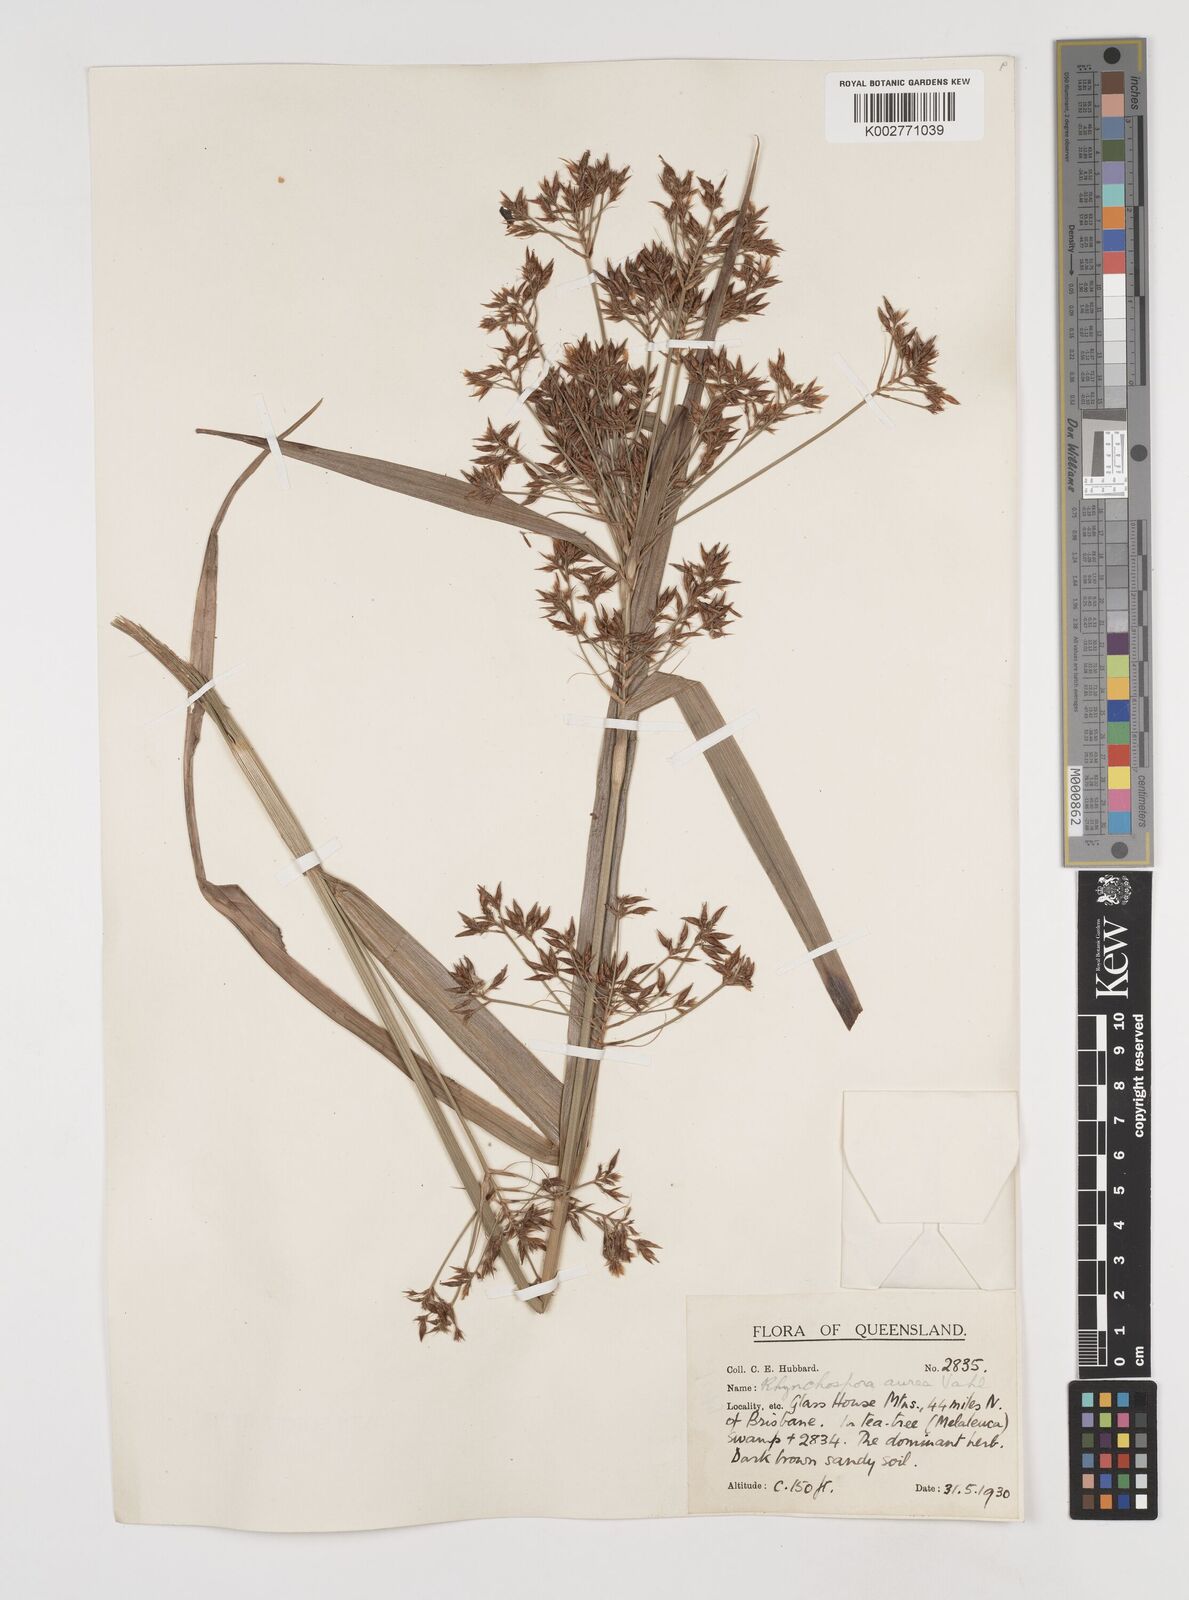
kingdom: Plantae
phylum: Tracheophyta
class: Liliopsida
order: Poales
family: Cyperaceae
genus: Rhynchospora
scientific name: Rhynchospora corymbosa
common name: Golden beak sedge
